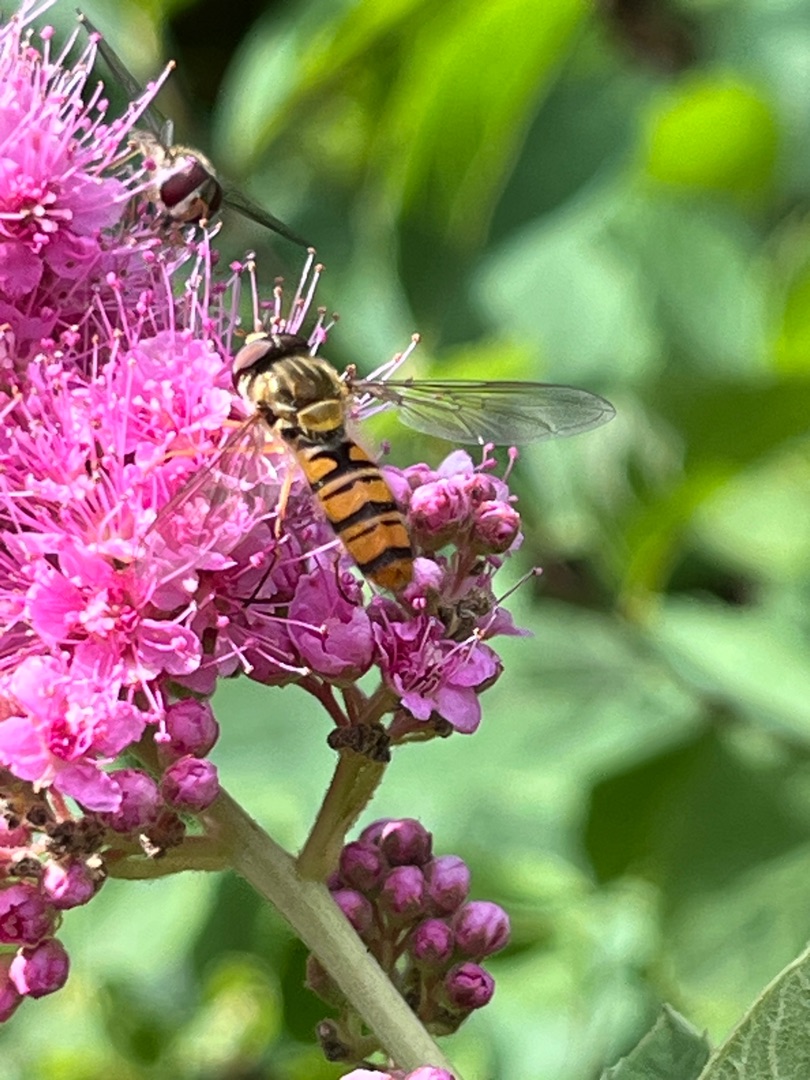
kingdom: Animalia
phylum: Arthropoda
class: Insecta
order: Diptera
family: Syrphidae
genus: Episyrphus
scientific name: Episyrphus balteatus
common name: Dobbeltbåndet svirreflue
